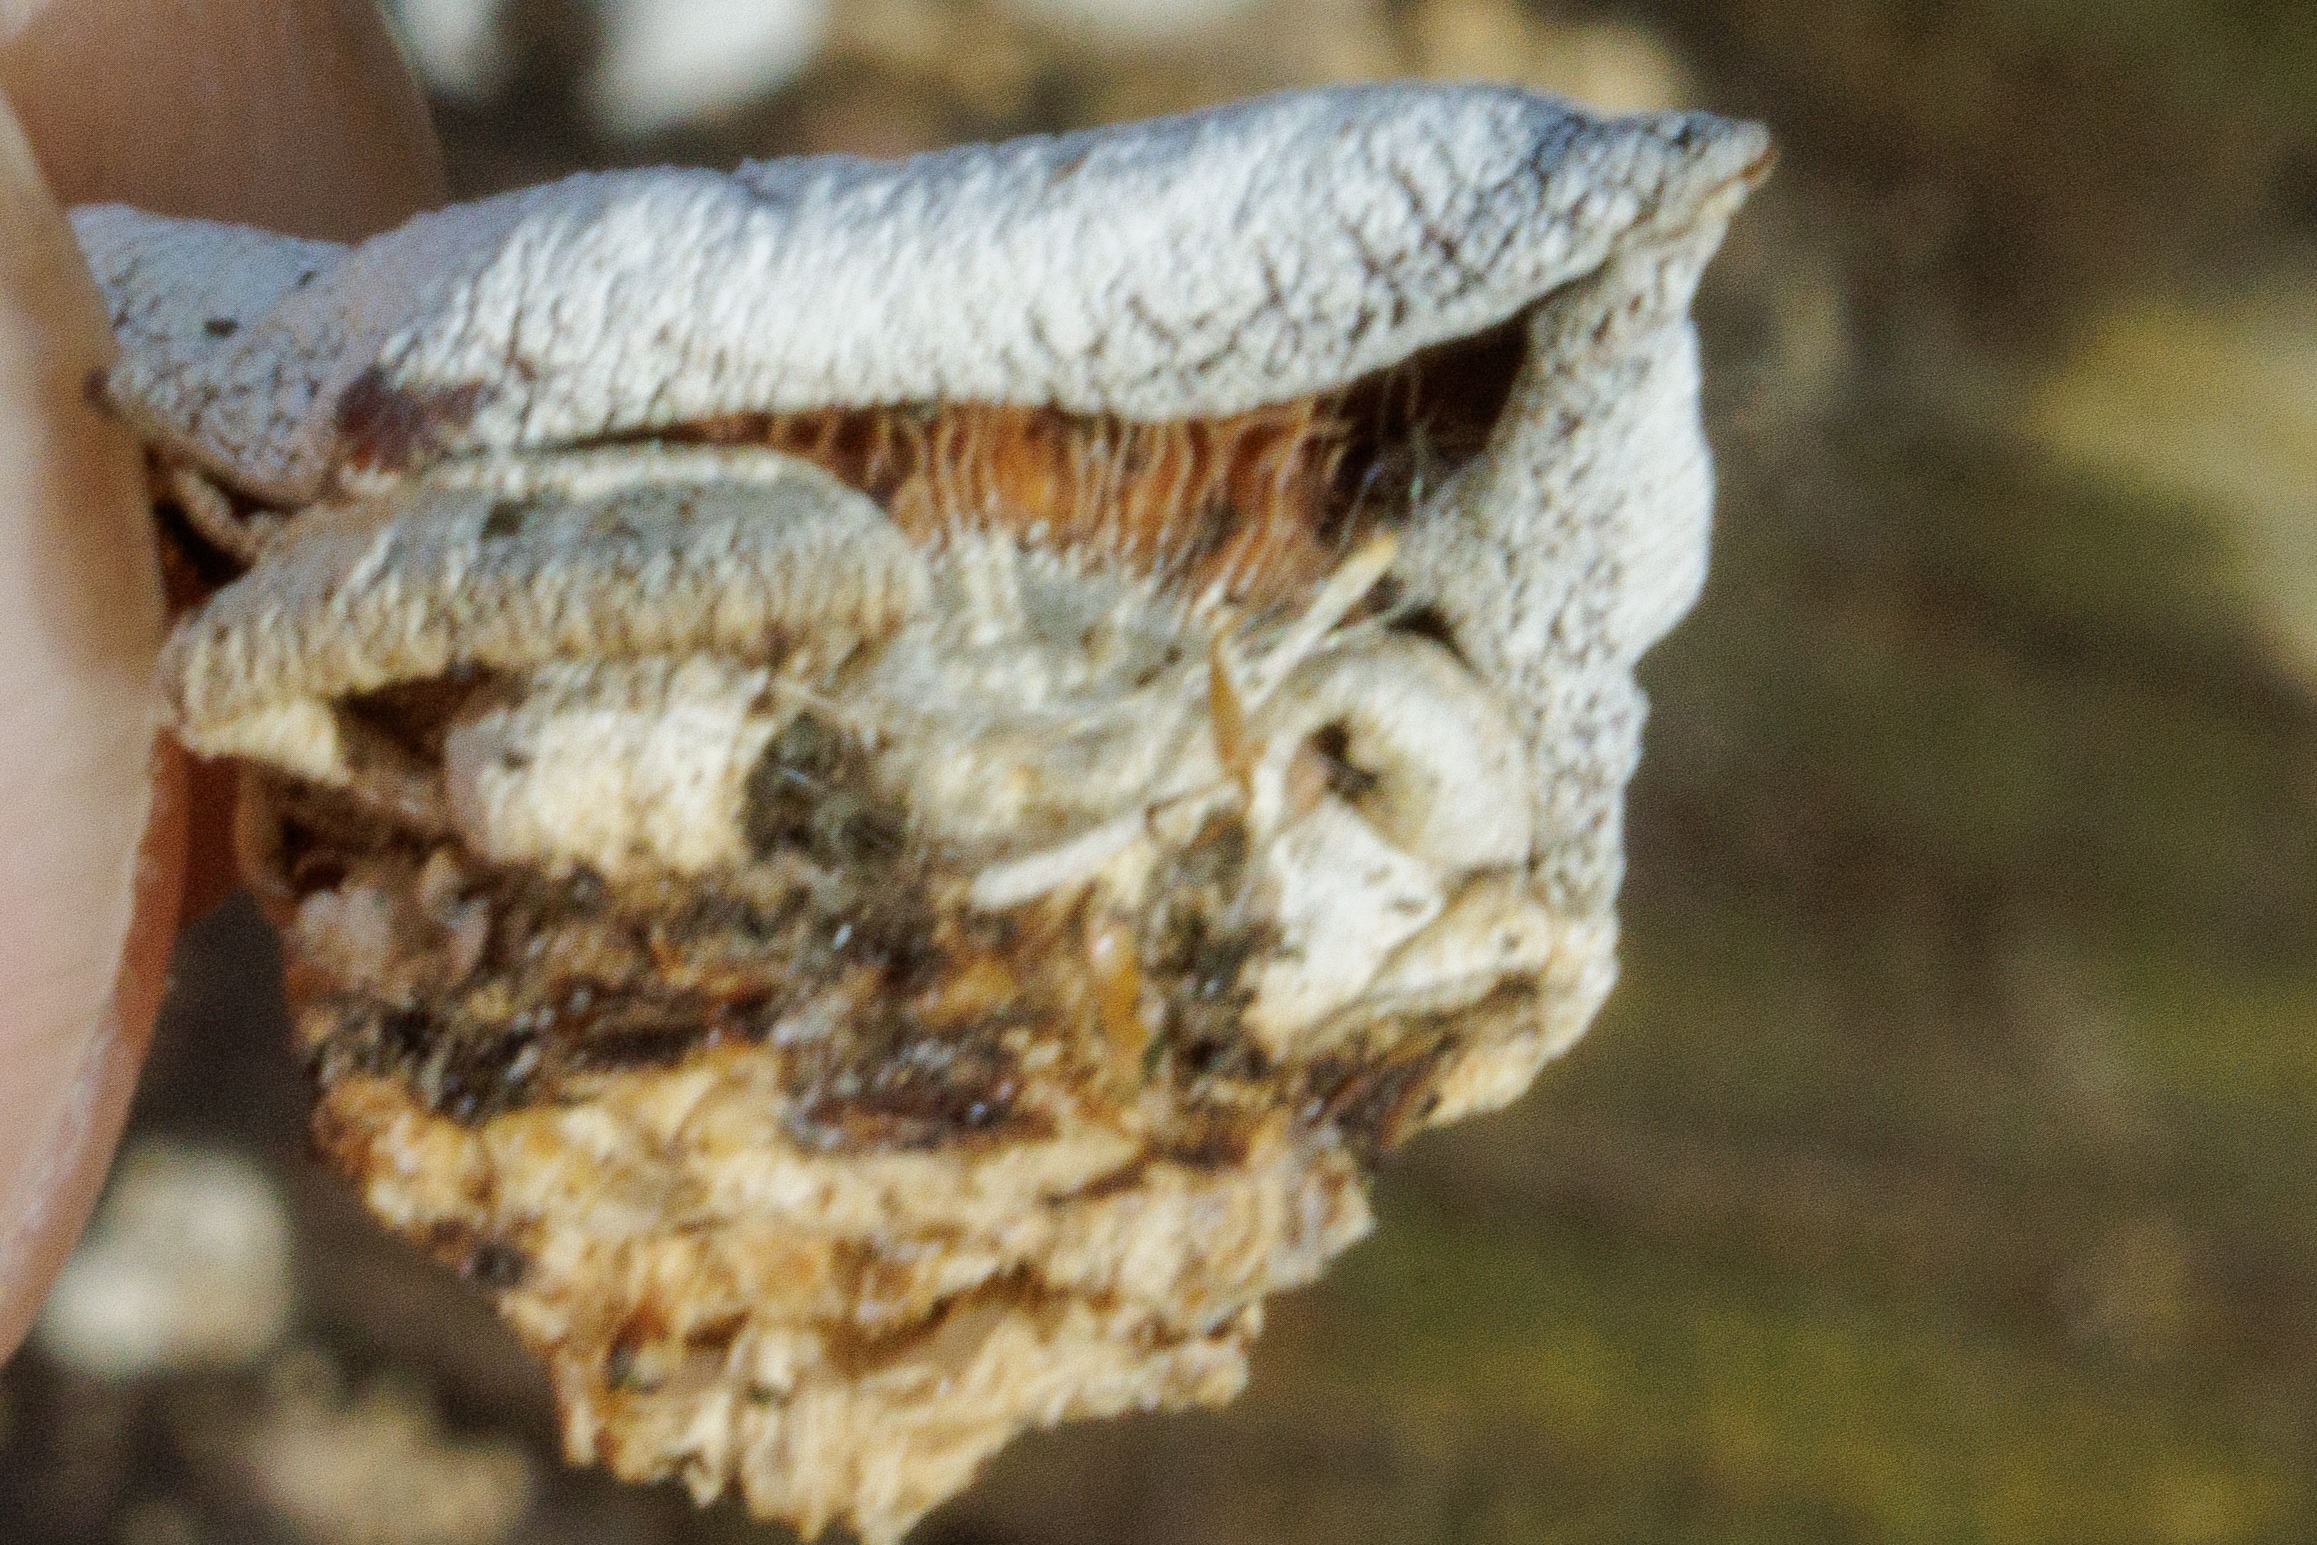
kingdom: Fungi
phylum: Basidiomycota
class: Agaricomycetes
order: Agaricales
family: Mycenaceae
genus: Panellus
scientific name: Panellus stipticus
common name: Kliddet epaulethat
